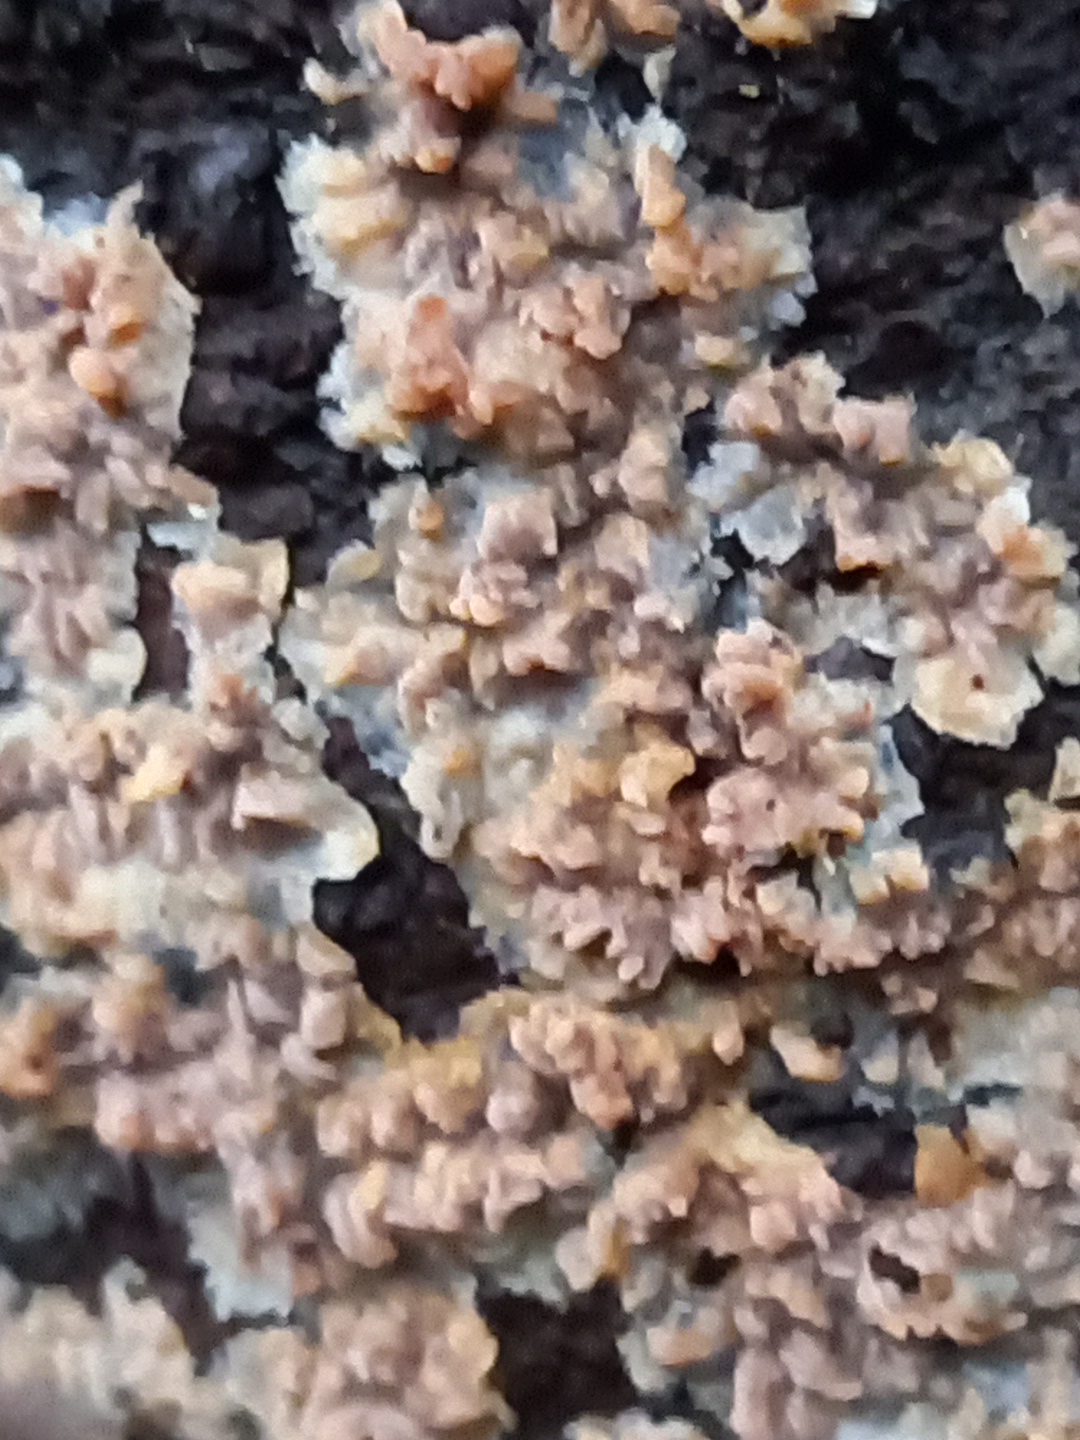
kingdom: Fungi
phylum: Basidiomycota
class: Agaricomycetes
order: Polyporales
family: Meruliaceae
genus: Phlebia
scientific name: Phlebia radiata
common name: stråle-åresvamp
